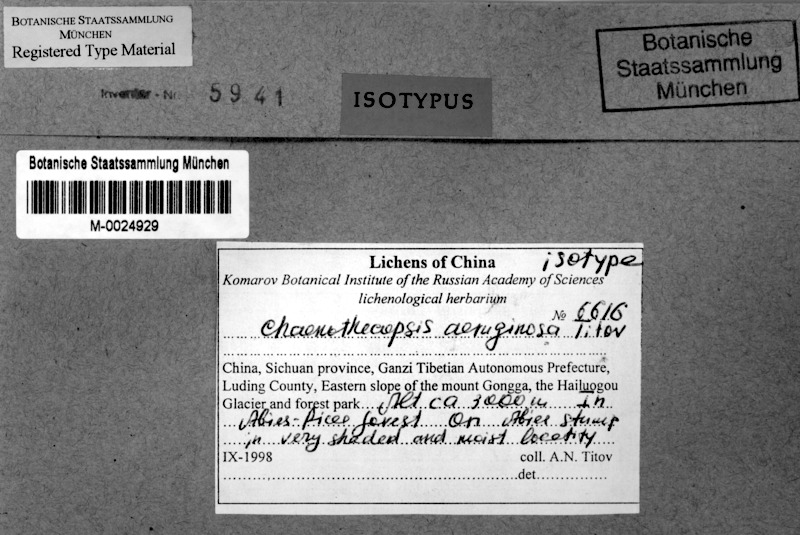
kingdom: Fungi
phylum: Ascomycota
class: Eurotiomycetes
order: Mycocaliciales
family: Mycocaliciaceae
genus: Chaenothecopsis
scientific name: Chaenothecopsis tibellii
